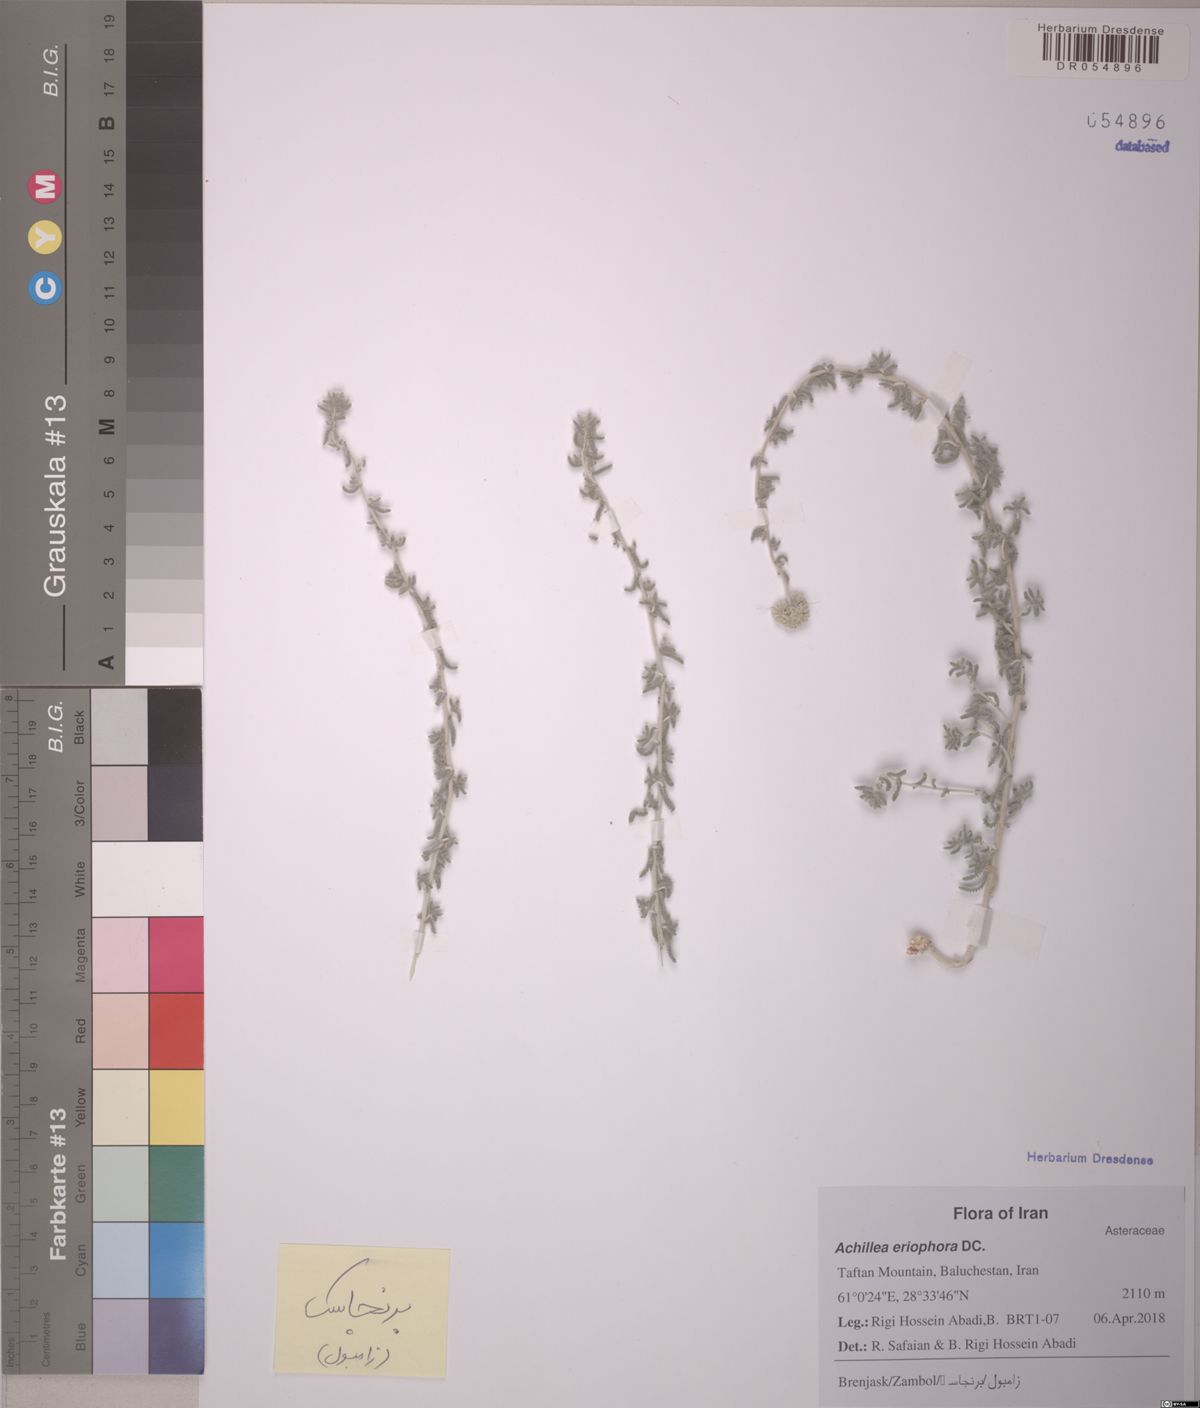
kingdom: Plantae
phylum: Tracheophyta
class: Magnoliopsida
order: Asterales
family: Asteraceae
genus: Achillea
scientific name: Achillea eriophora
